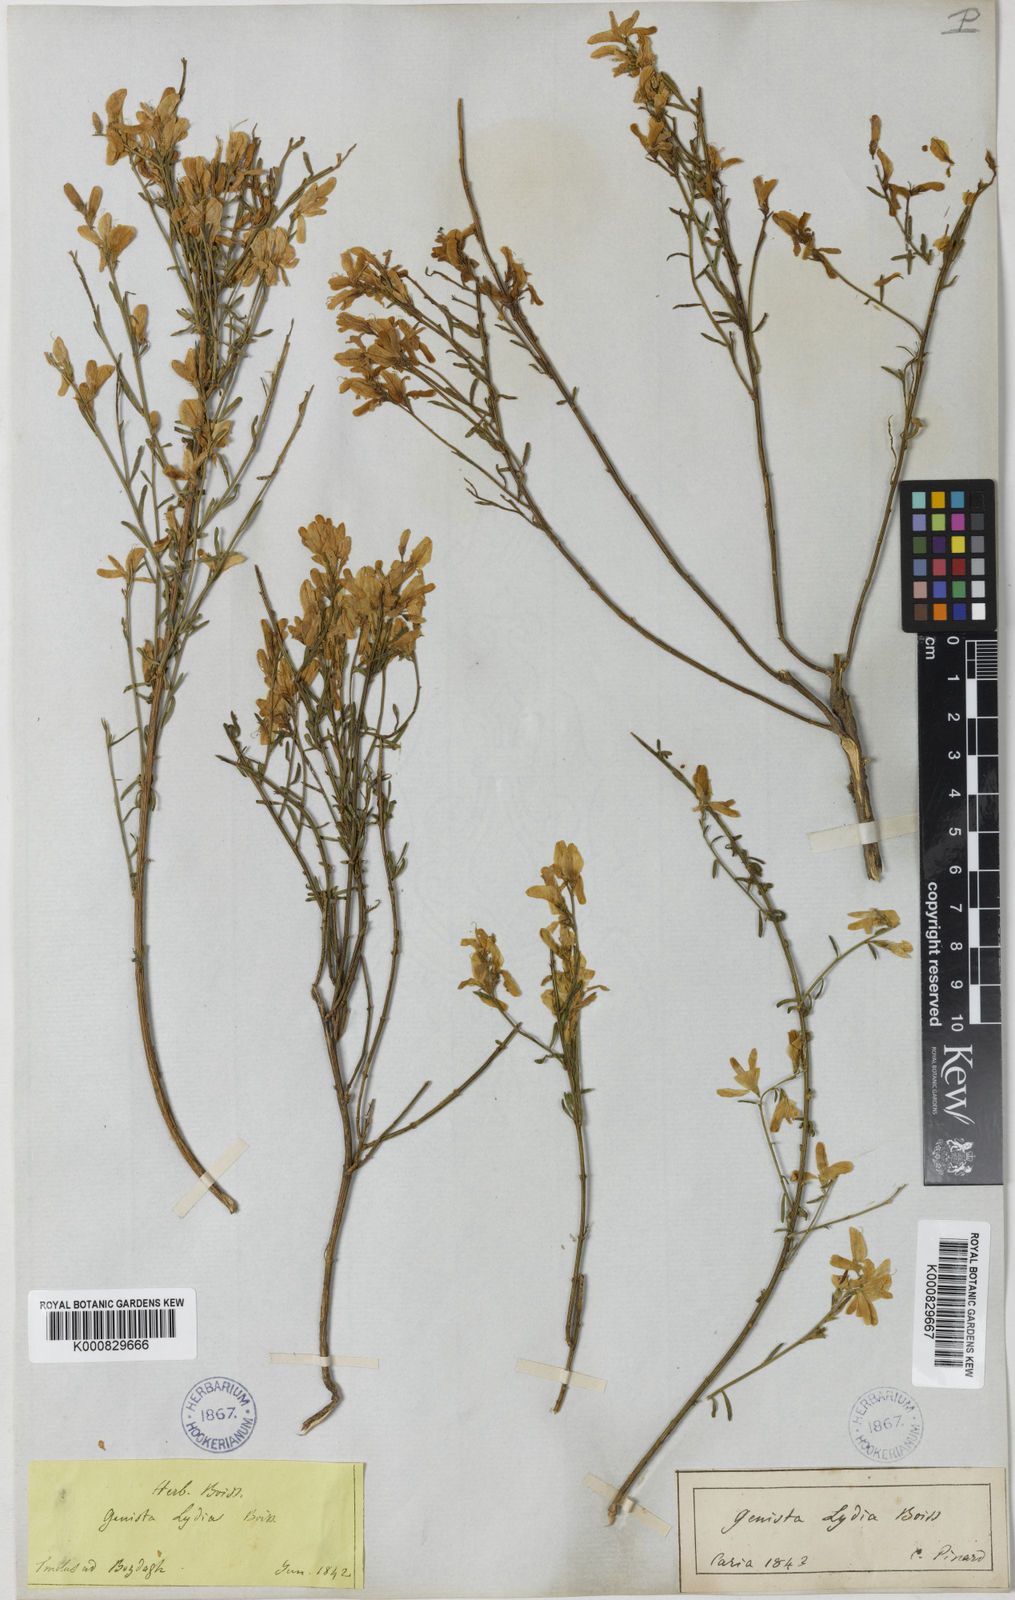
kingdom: Plantae
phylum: Tracheophyta
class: Magnoliopsida
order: Fabales
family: Fabaceae
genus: Genista
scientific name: Genista lydia
